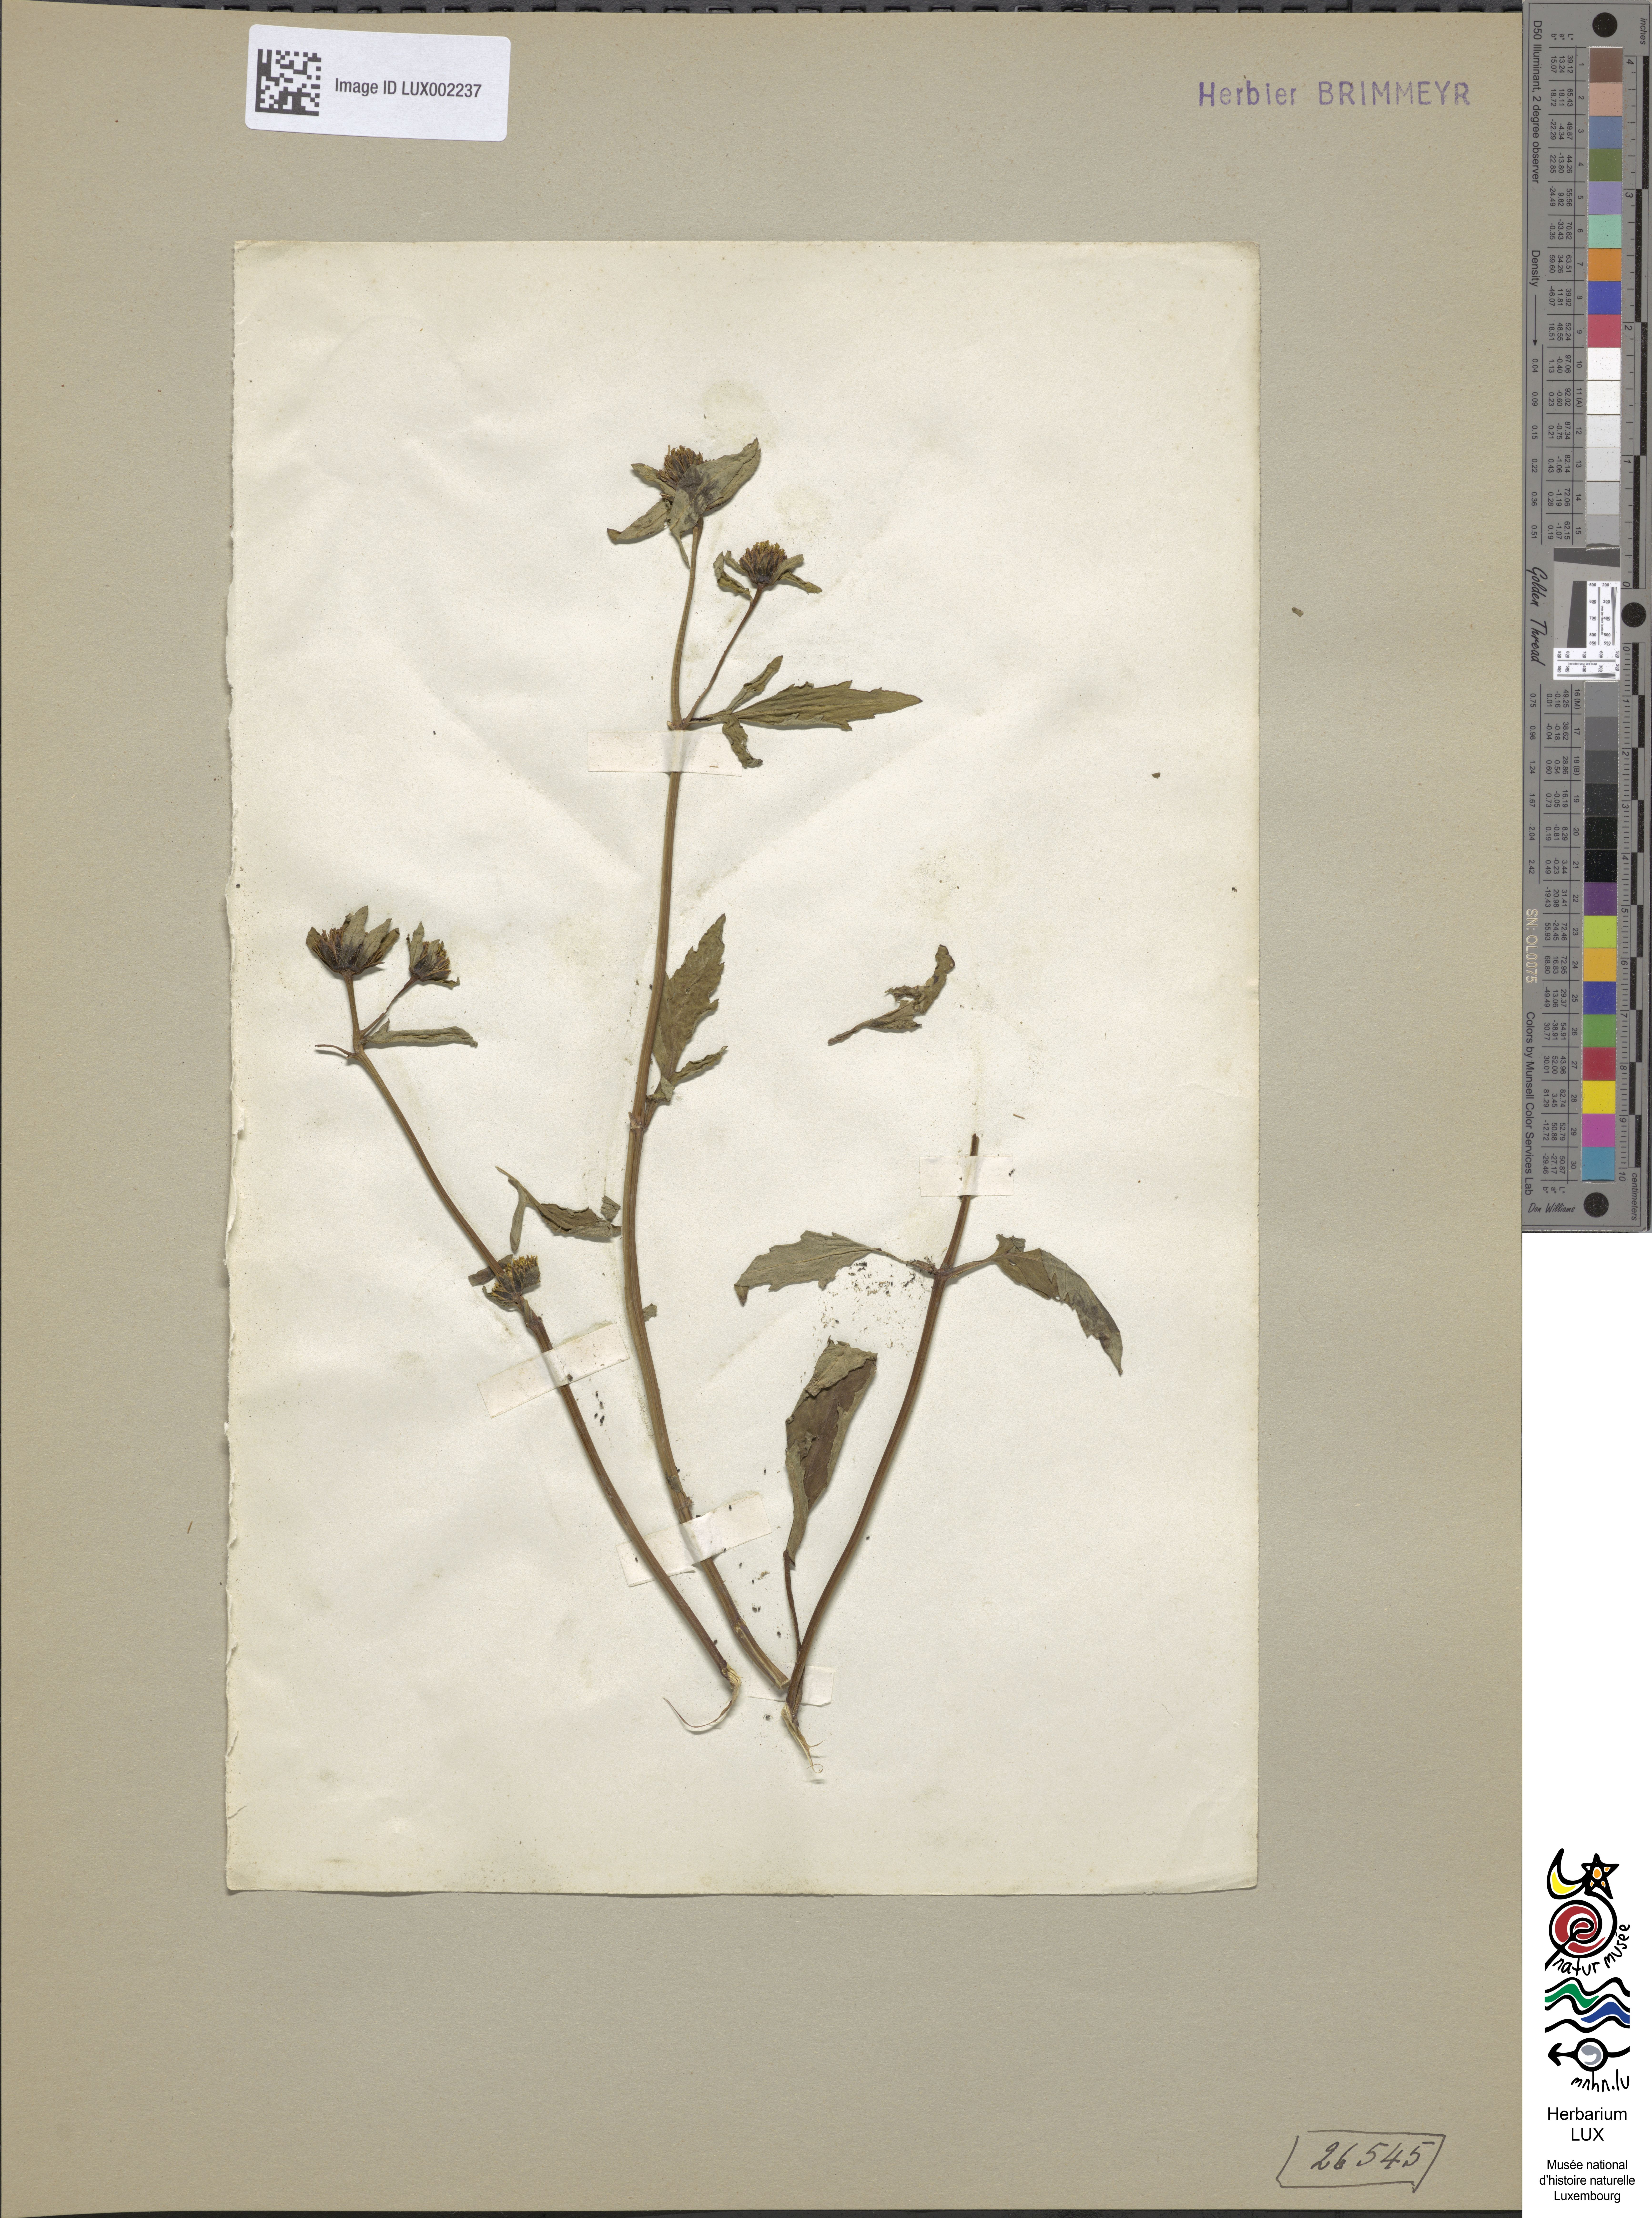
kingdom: Plantae
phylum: Tracheophyta
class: Magnoliopsida
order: Asterales
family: Asteraceae
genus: Bidens
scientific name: Bidens tripartita
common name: Trifid bur-marigold
